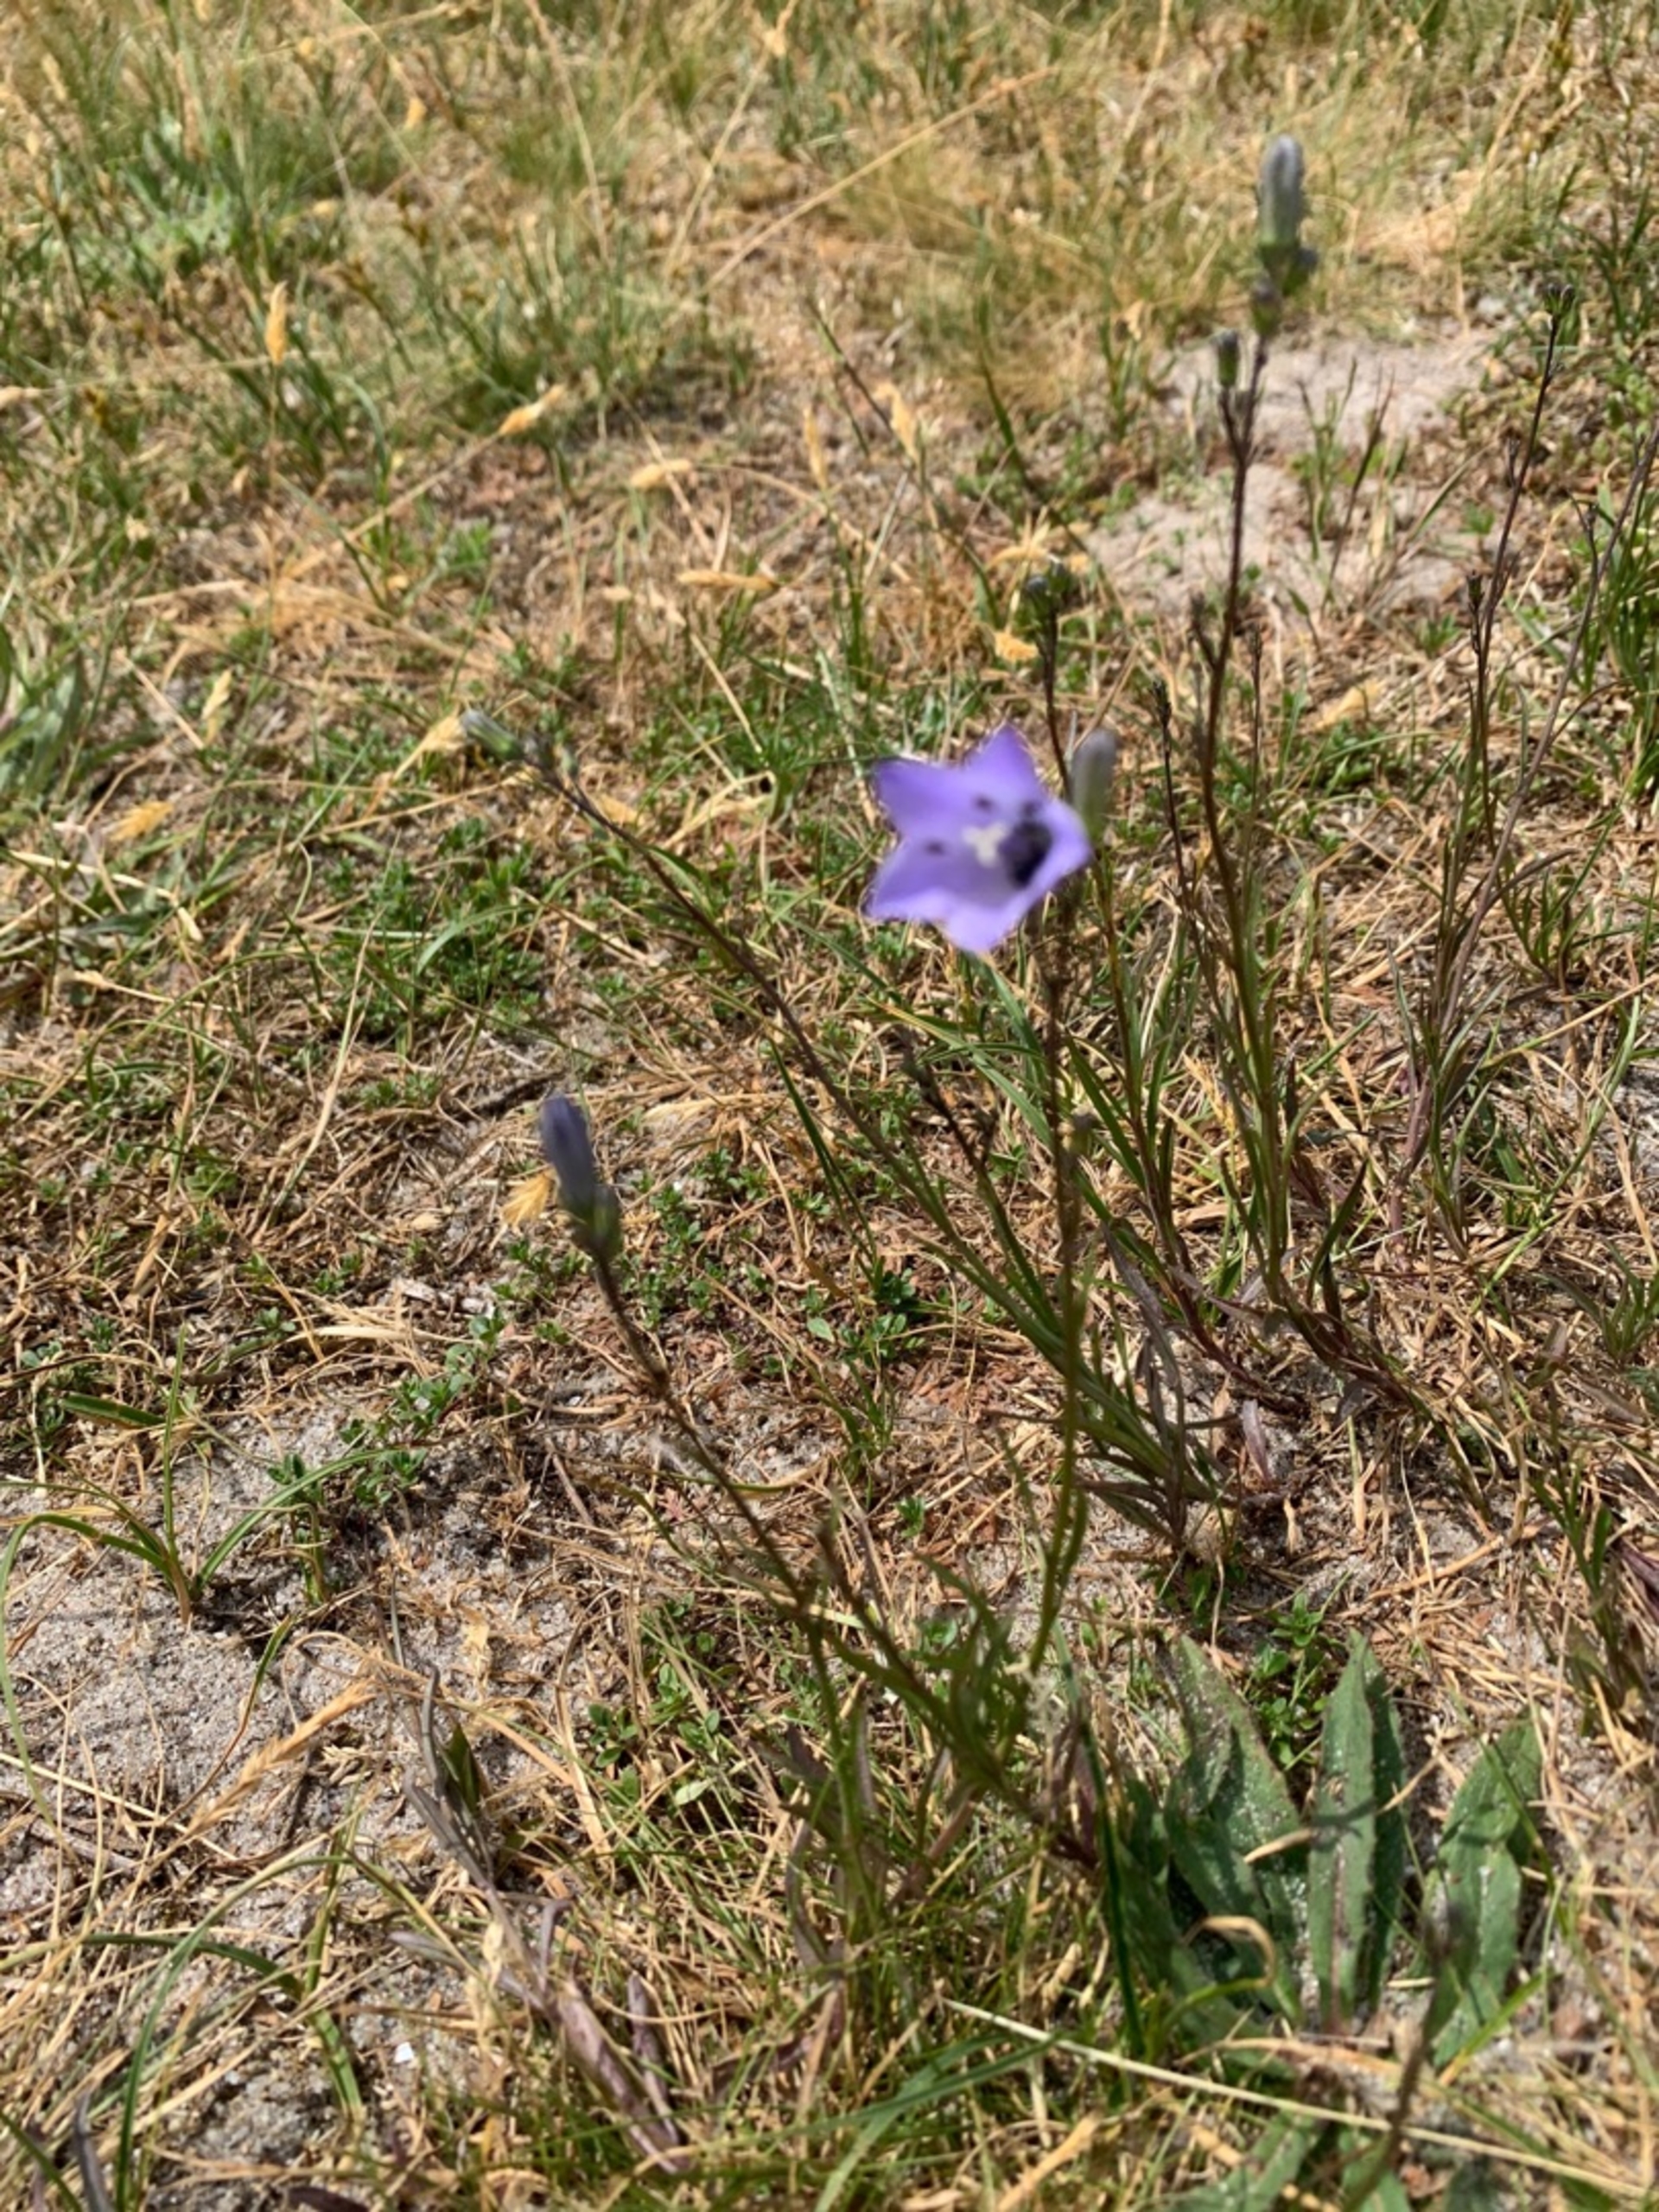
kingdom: Plantae
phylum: Tracheophyta
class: Magnoliopsida
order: Asterales
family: Campanulaceae
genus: Campanula
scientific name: Campanula rotundifolia
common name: Liden klokke
